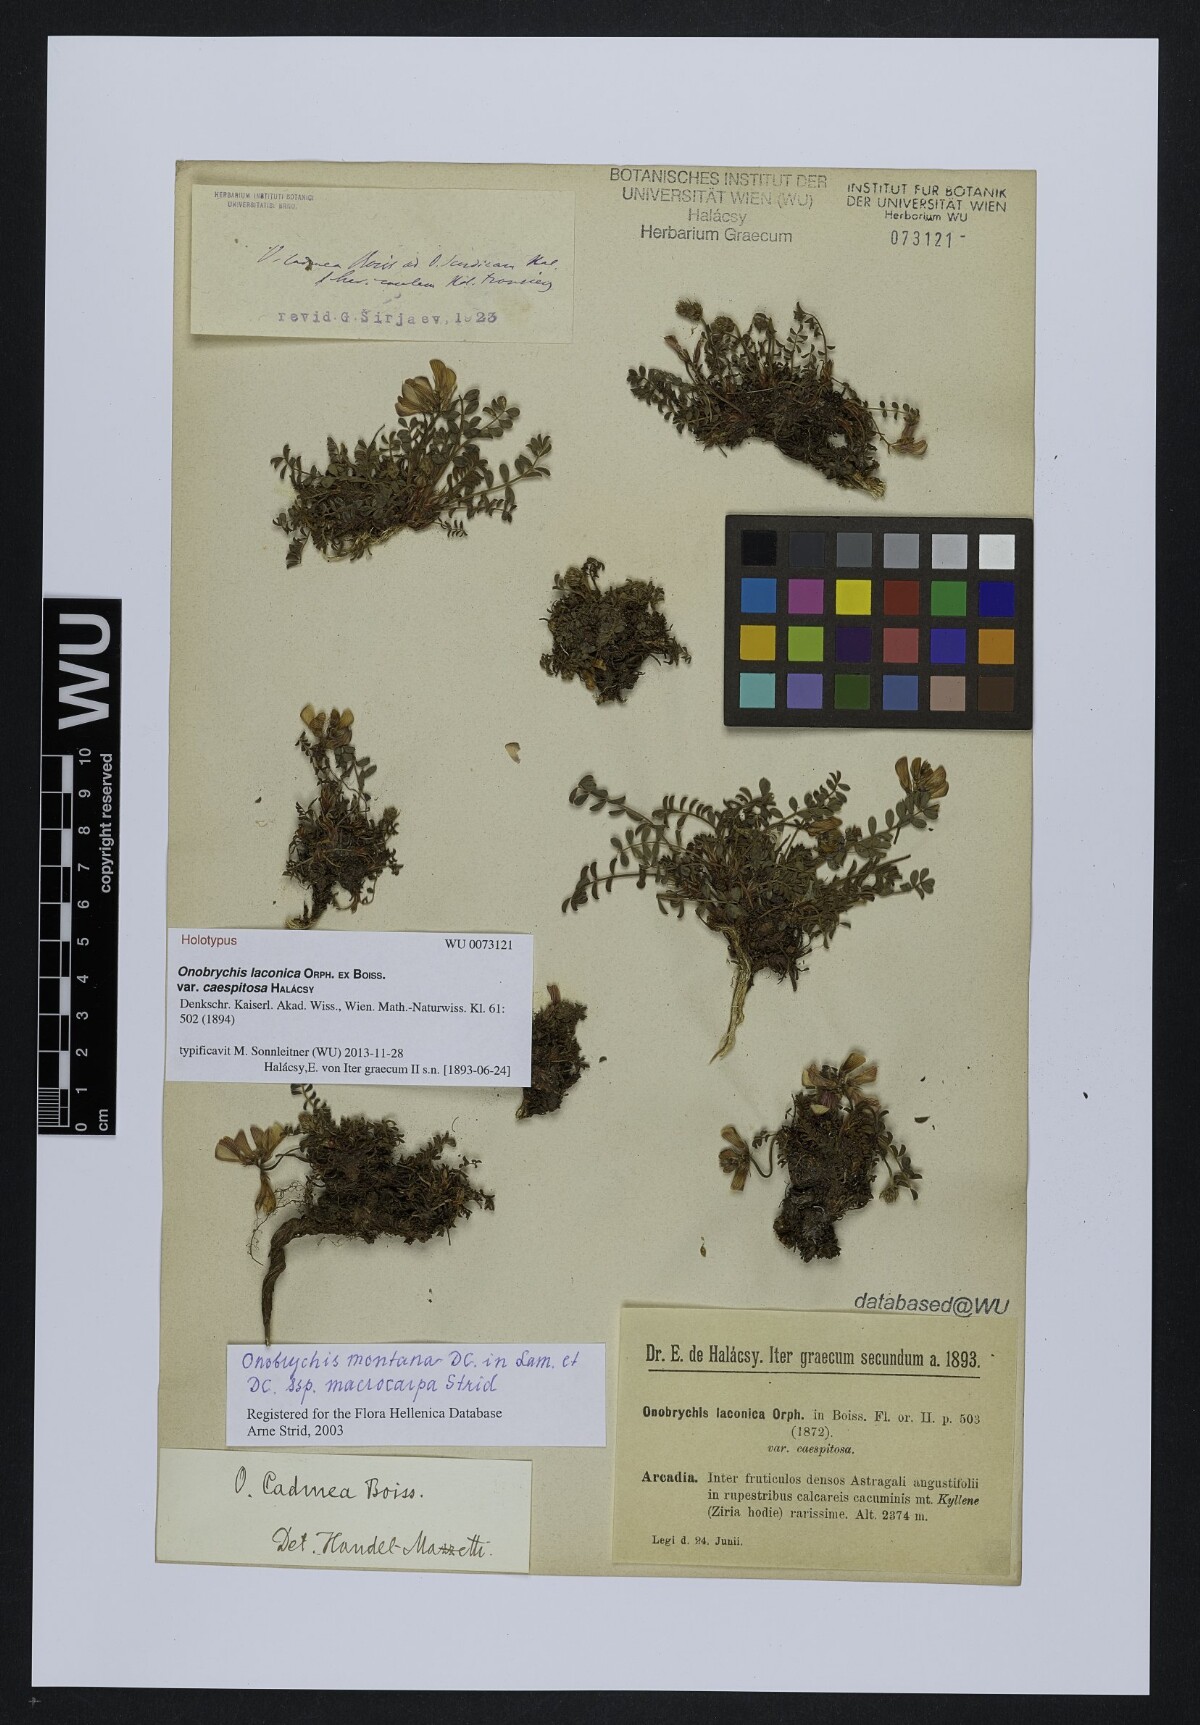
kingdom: Plantae
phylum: Tracheophyta
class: Magnoliopsida
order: Fabales
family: Fabaceae
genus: Onobrychis
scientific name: Onobrychis montana
